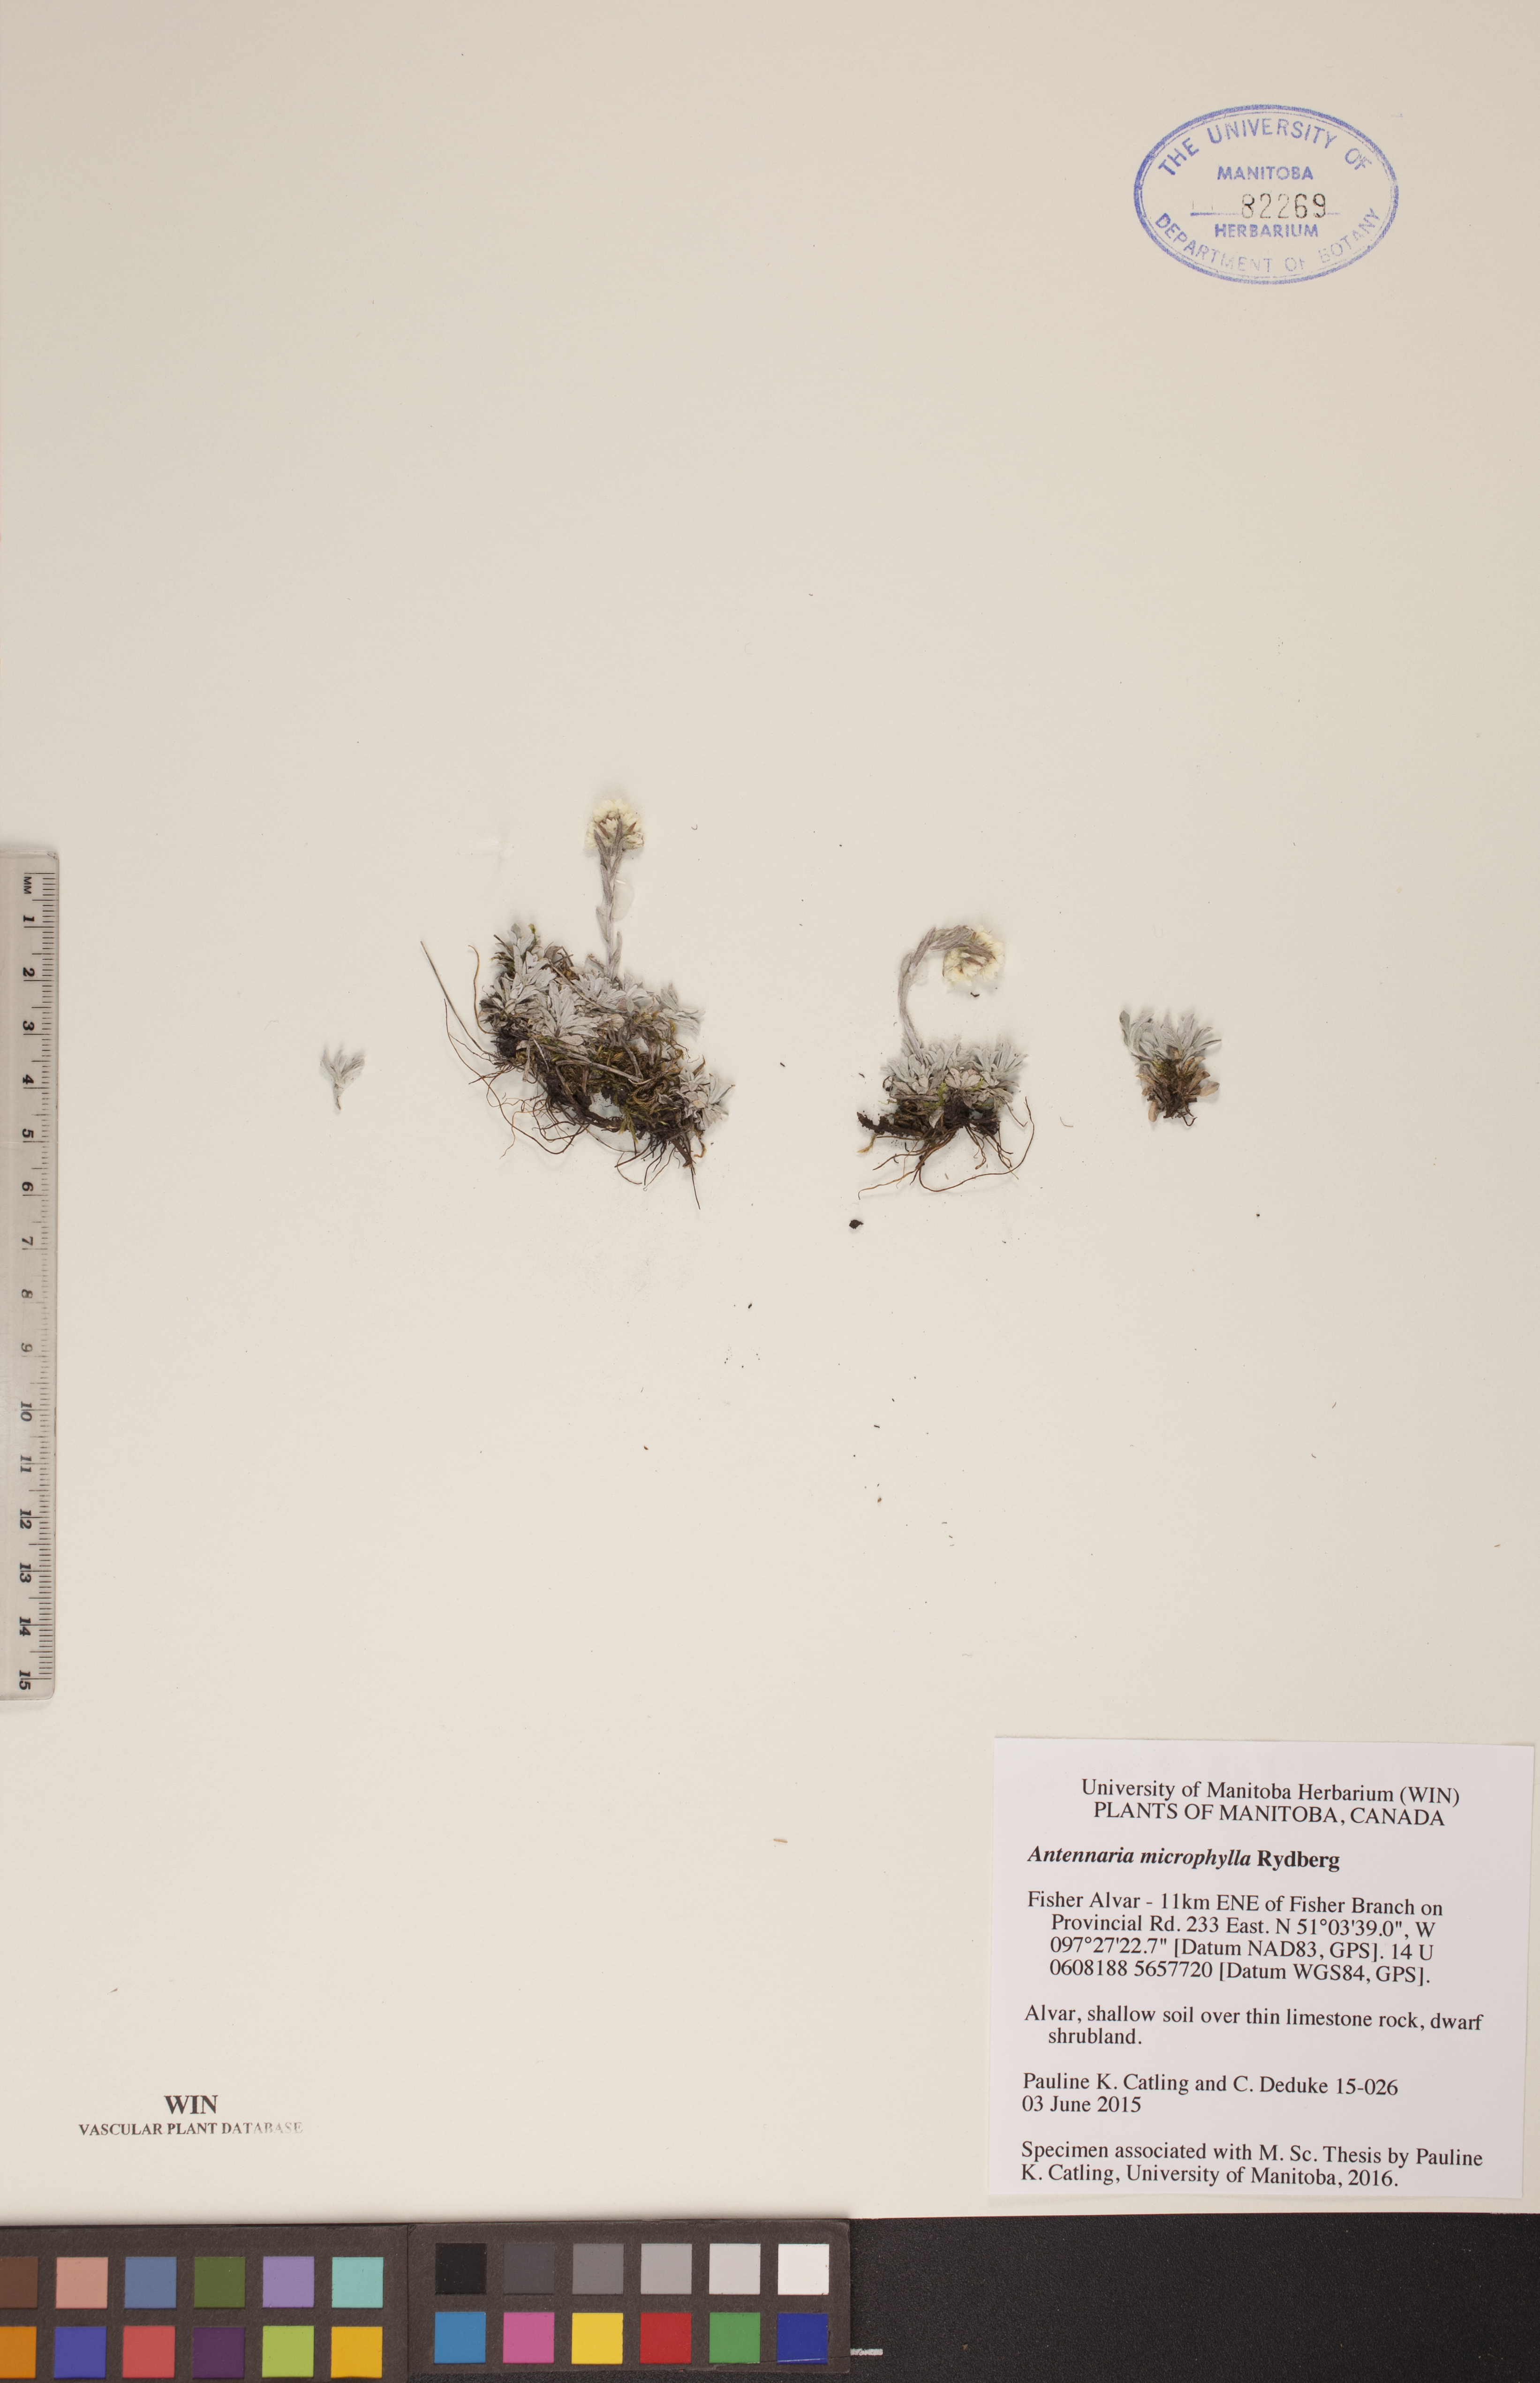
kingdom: Plantae
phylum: Tracheophyta
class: Magnoliopsida
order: Asterales
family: Asteraceae
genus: Antennaria
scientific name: Antennaria microphylla
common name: Littleleaf pussytoes
